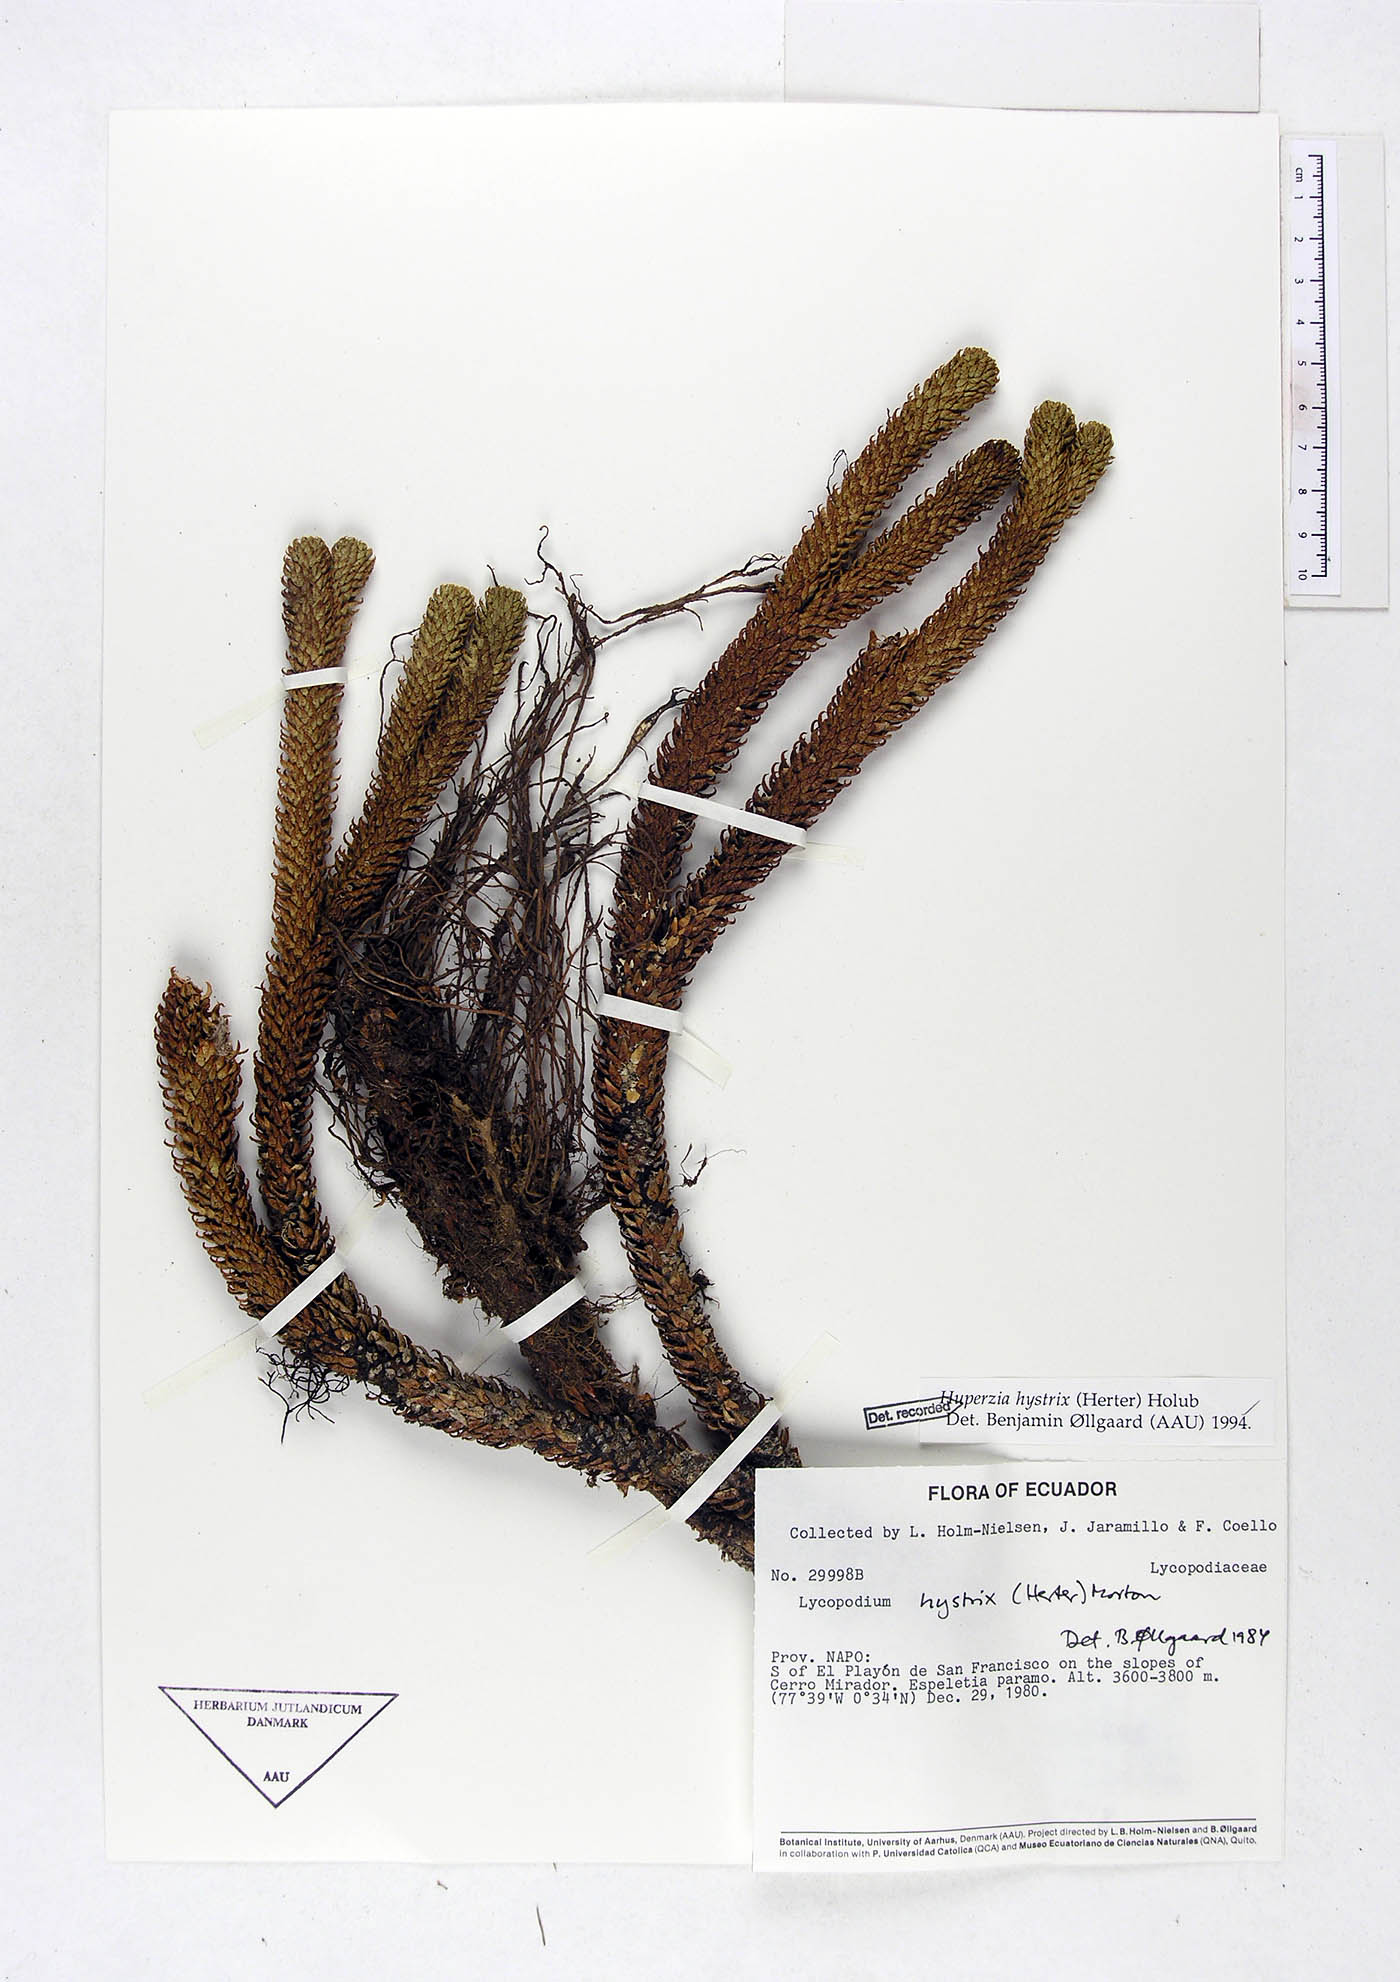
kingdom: Plantae
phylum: Tracheophyta
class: Lycopodiopsida
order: Lycopodiales
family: Lycopodiaceae
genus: Phlegmariurus
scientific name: Phlegmariurus hystrix
